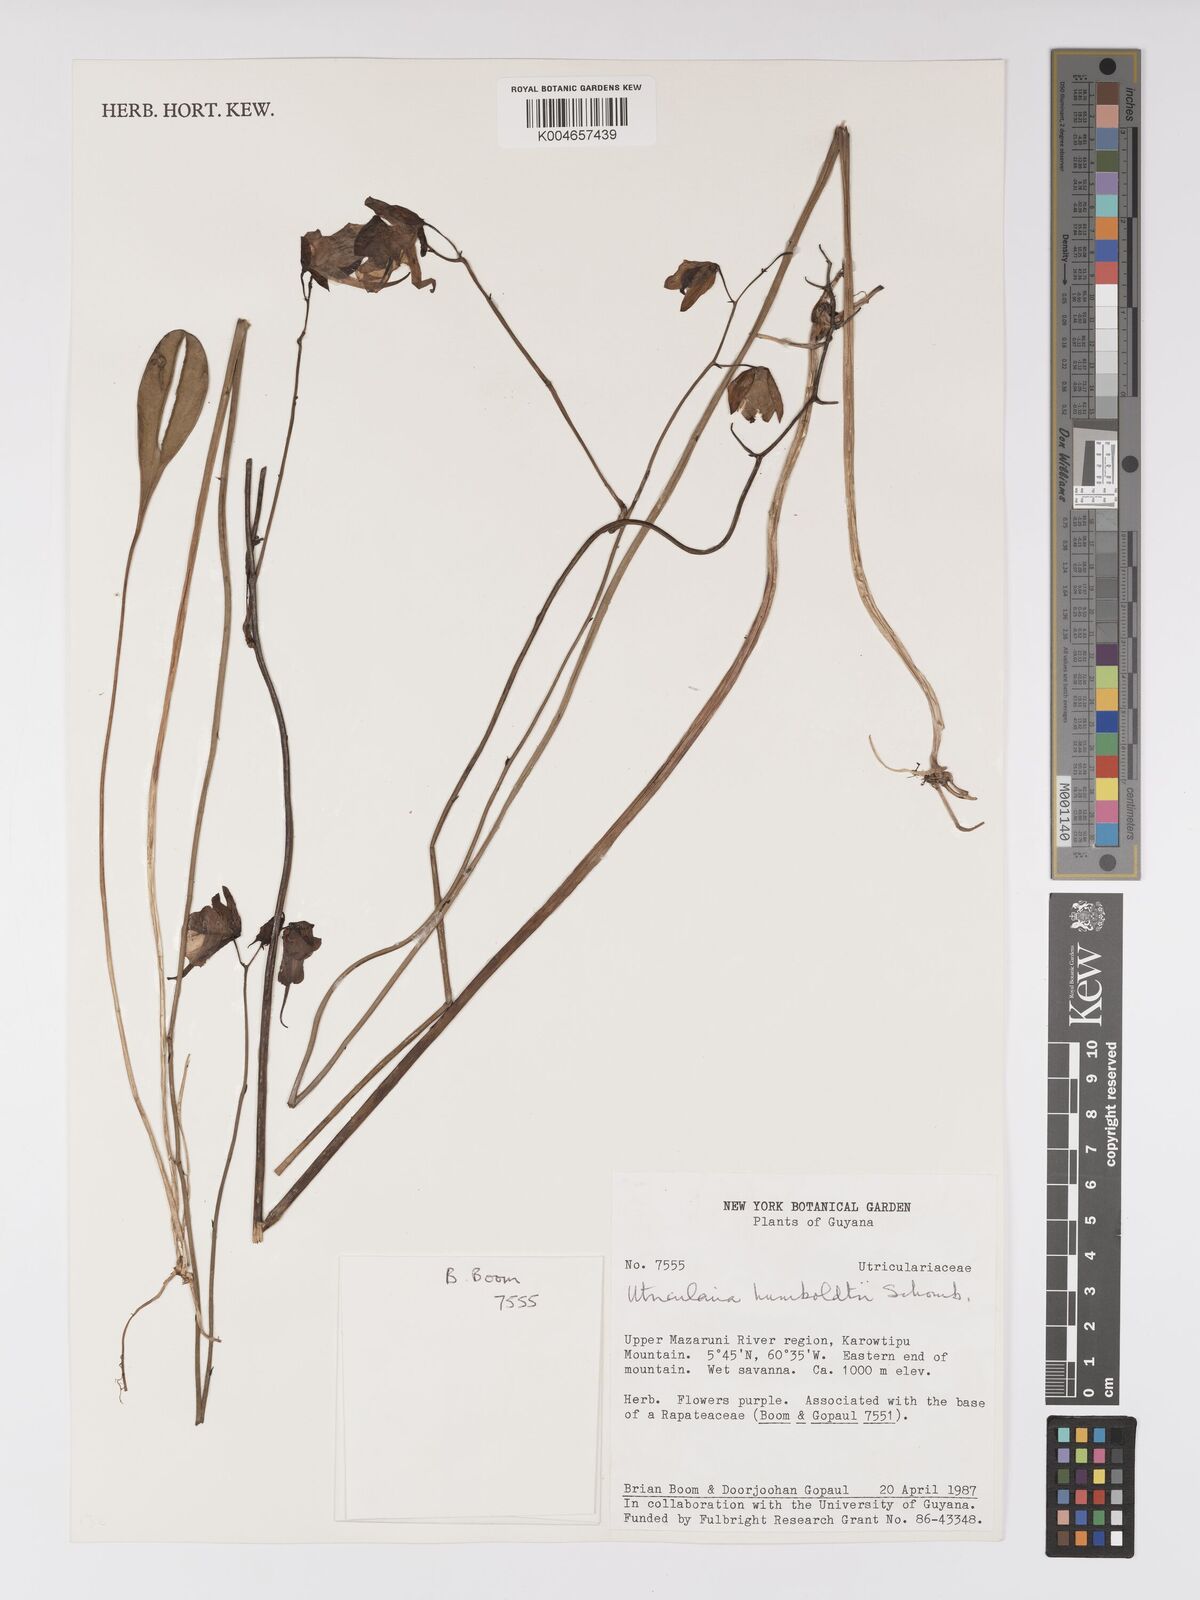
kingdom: Plantae
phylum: Tracheophyta
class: Magnoliopsida
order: Lamiales
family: Lentibulariaceae
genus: Utricularia
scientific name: Utricularia humboldtii
